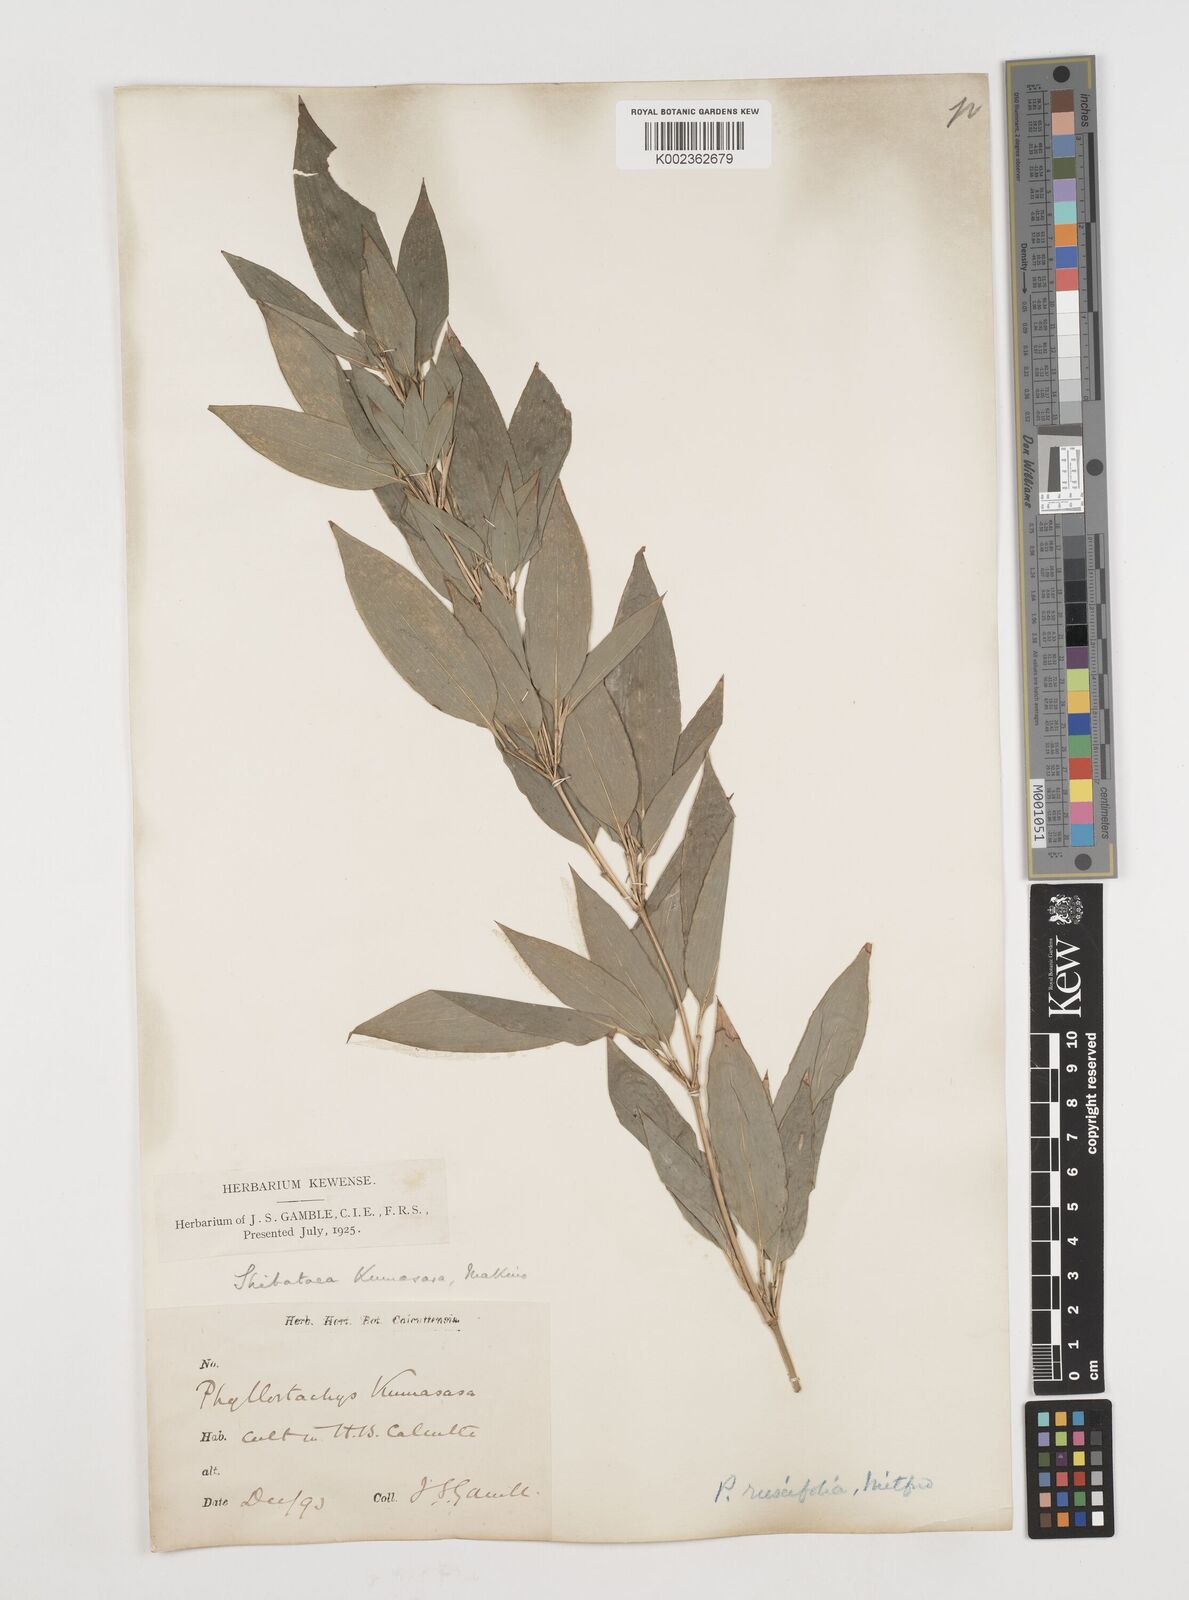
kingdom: Plantae
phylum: Tracheophyta
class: Liliopsida
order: Poales
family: Poaceae
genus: Shibataea
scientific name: Shibataea kumasasa
